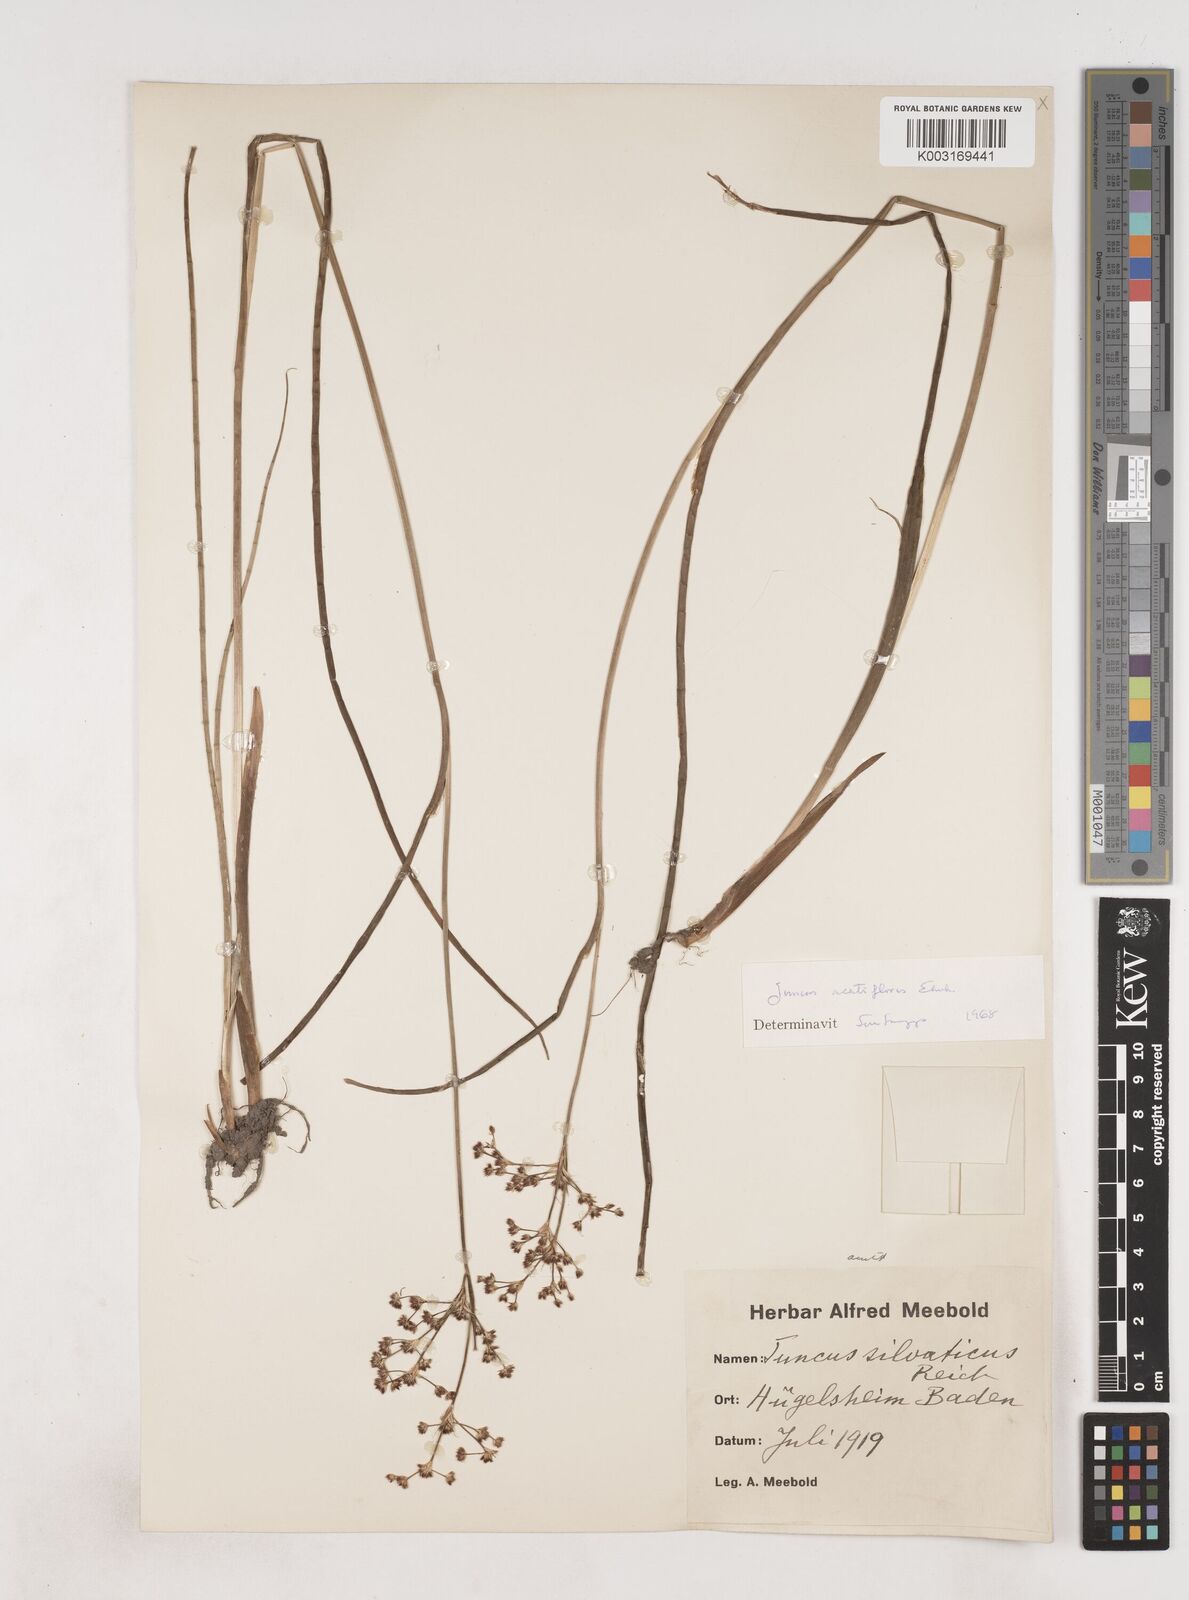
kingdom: Plantae
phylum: Tracheophyta
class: Liliopsida
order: Poales
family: Juncaceae
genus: Juncus
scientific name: Juncus acutiflorus
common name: Sharp-flowered rush
